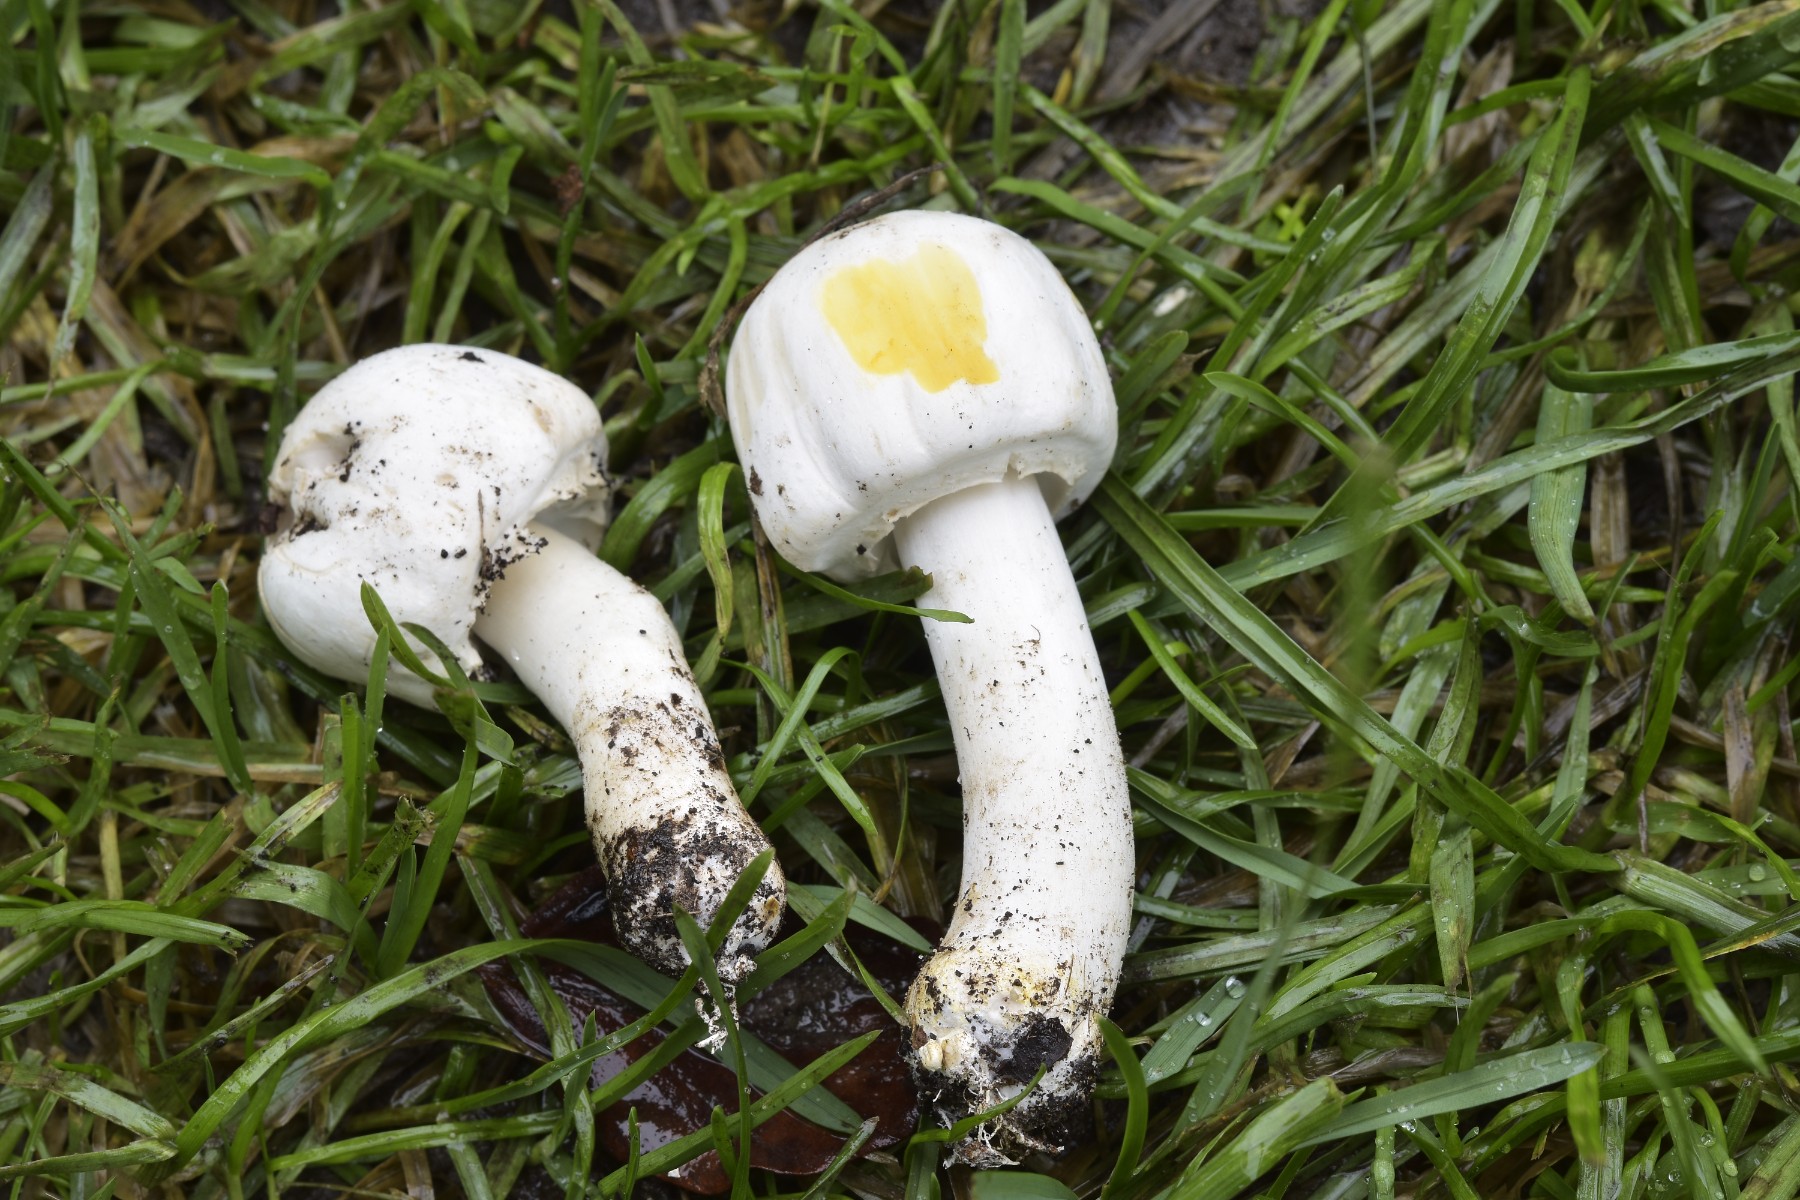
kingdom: Fungi
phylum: Basidiomycota
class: Agaricomycetes
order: Agaricales
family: Agaricaceae
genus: Agaricus
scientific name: Agaricus xanthodermus
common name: karbol-champignon
